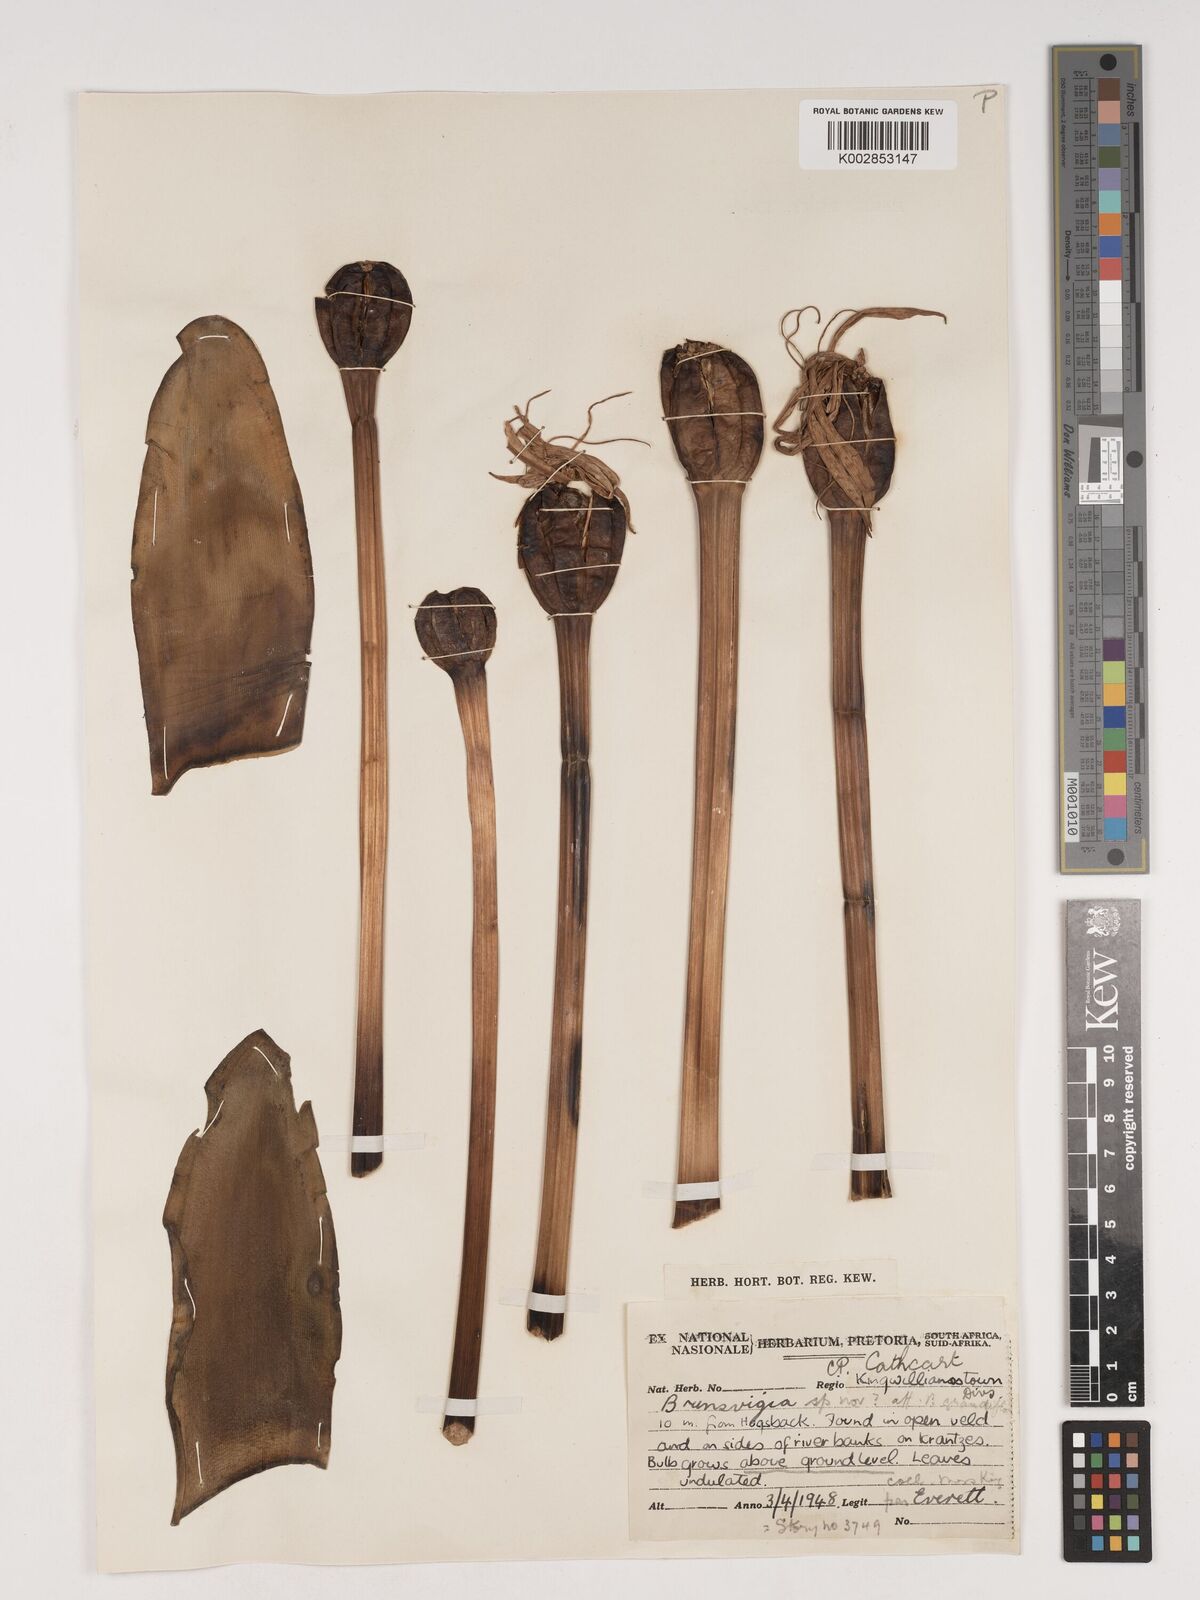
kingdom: Plantae
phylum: Tracheophyta
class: Liliopsida
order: Asparagales
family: Amaryllidaceae
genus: Brunsvigia
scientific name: Brunsvigia grandiflora
